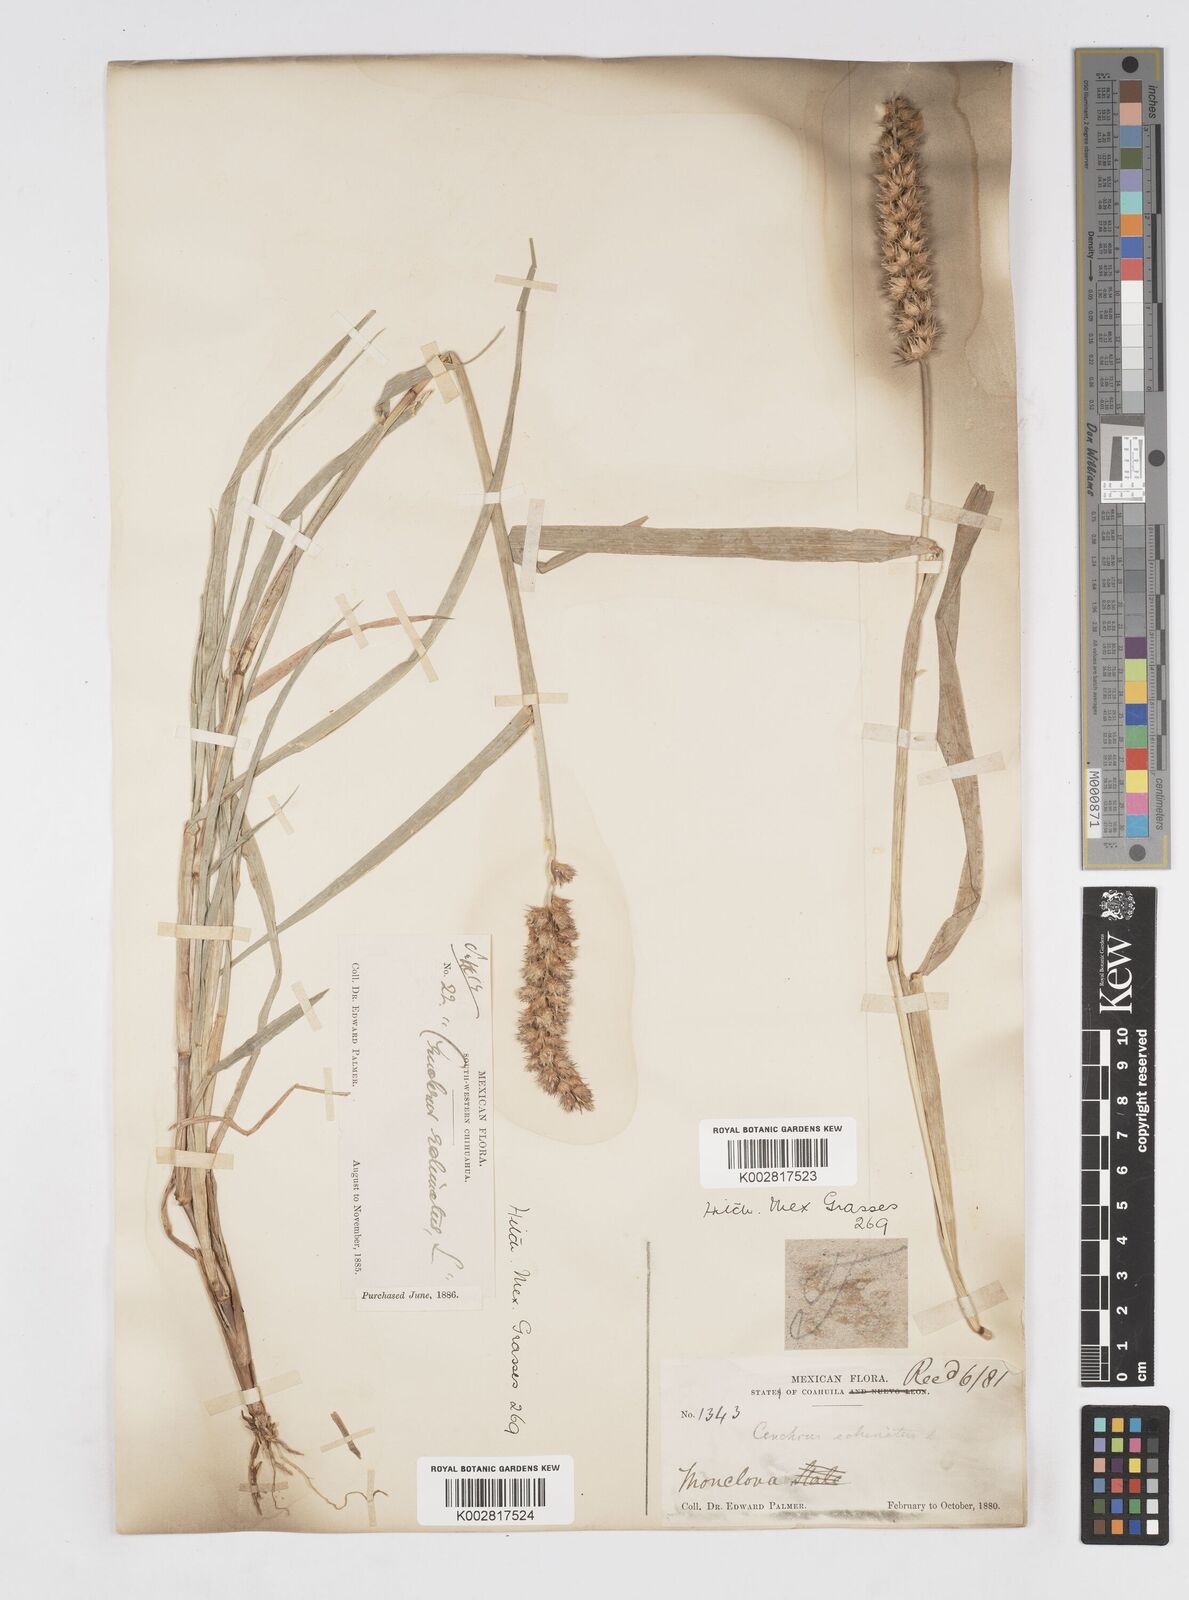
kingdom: Plantae
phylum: Tracheophyta
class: Liliopsida
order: Poales
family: Poaceae
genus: Cenchrus
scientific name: Cenchrus
